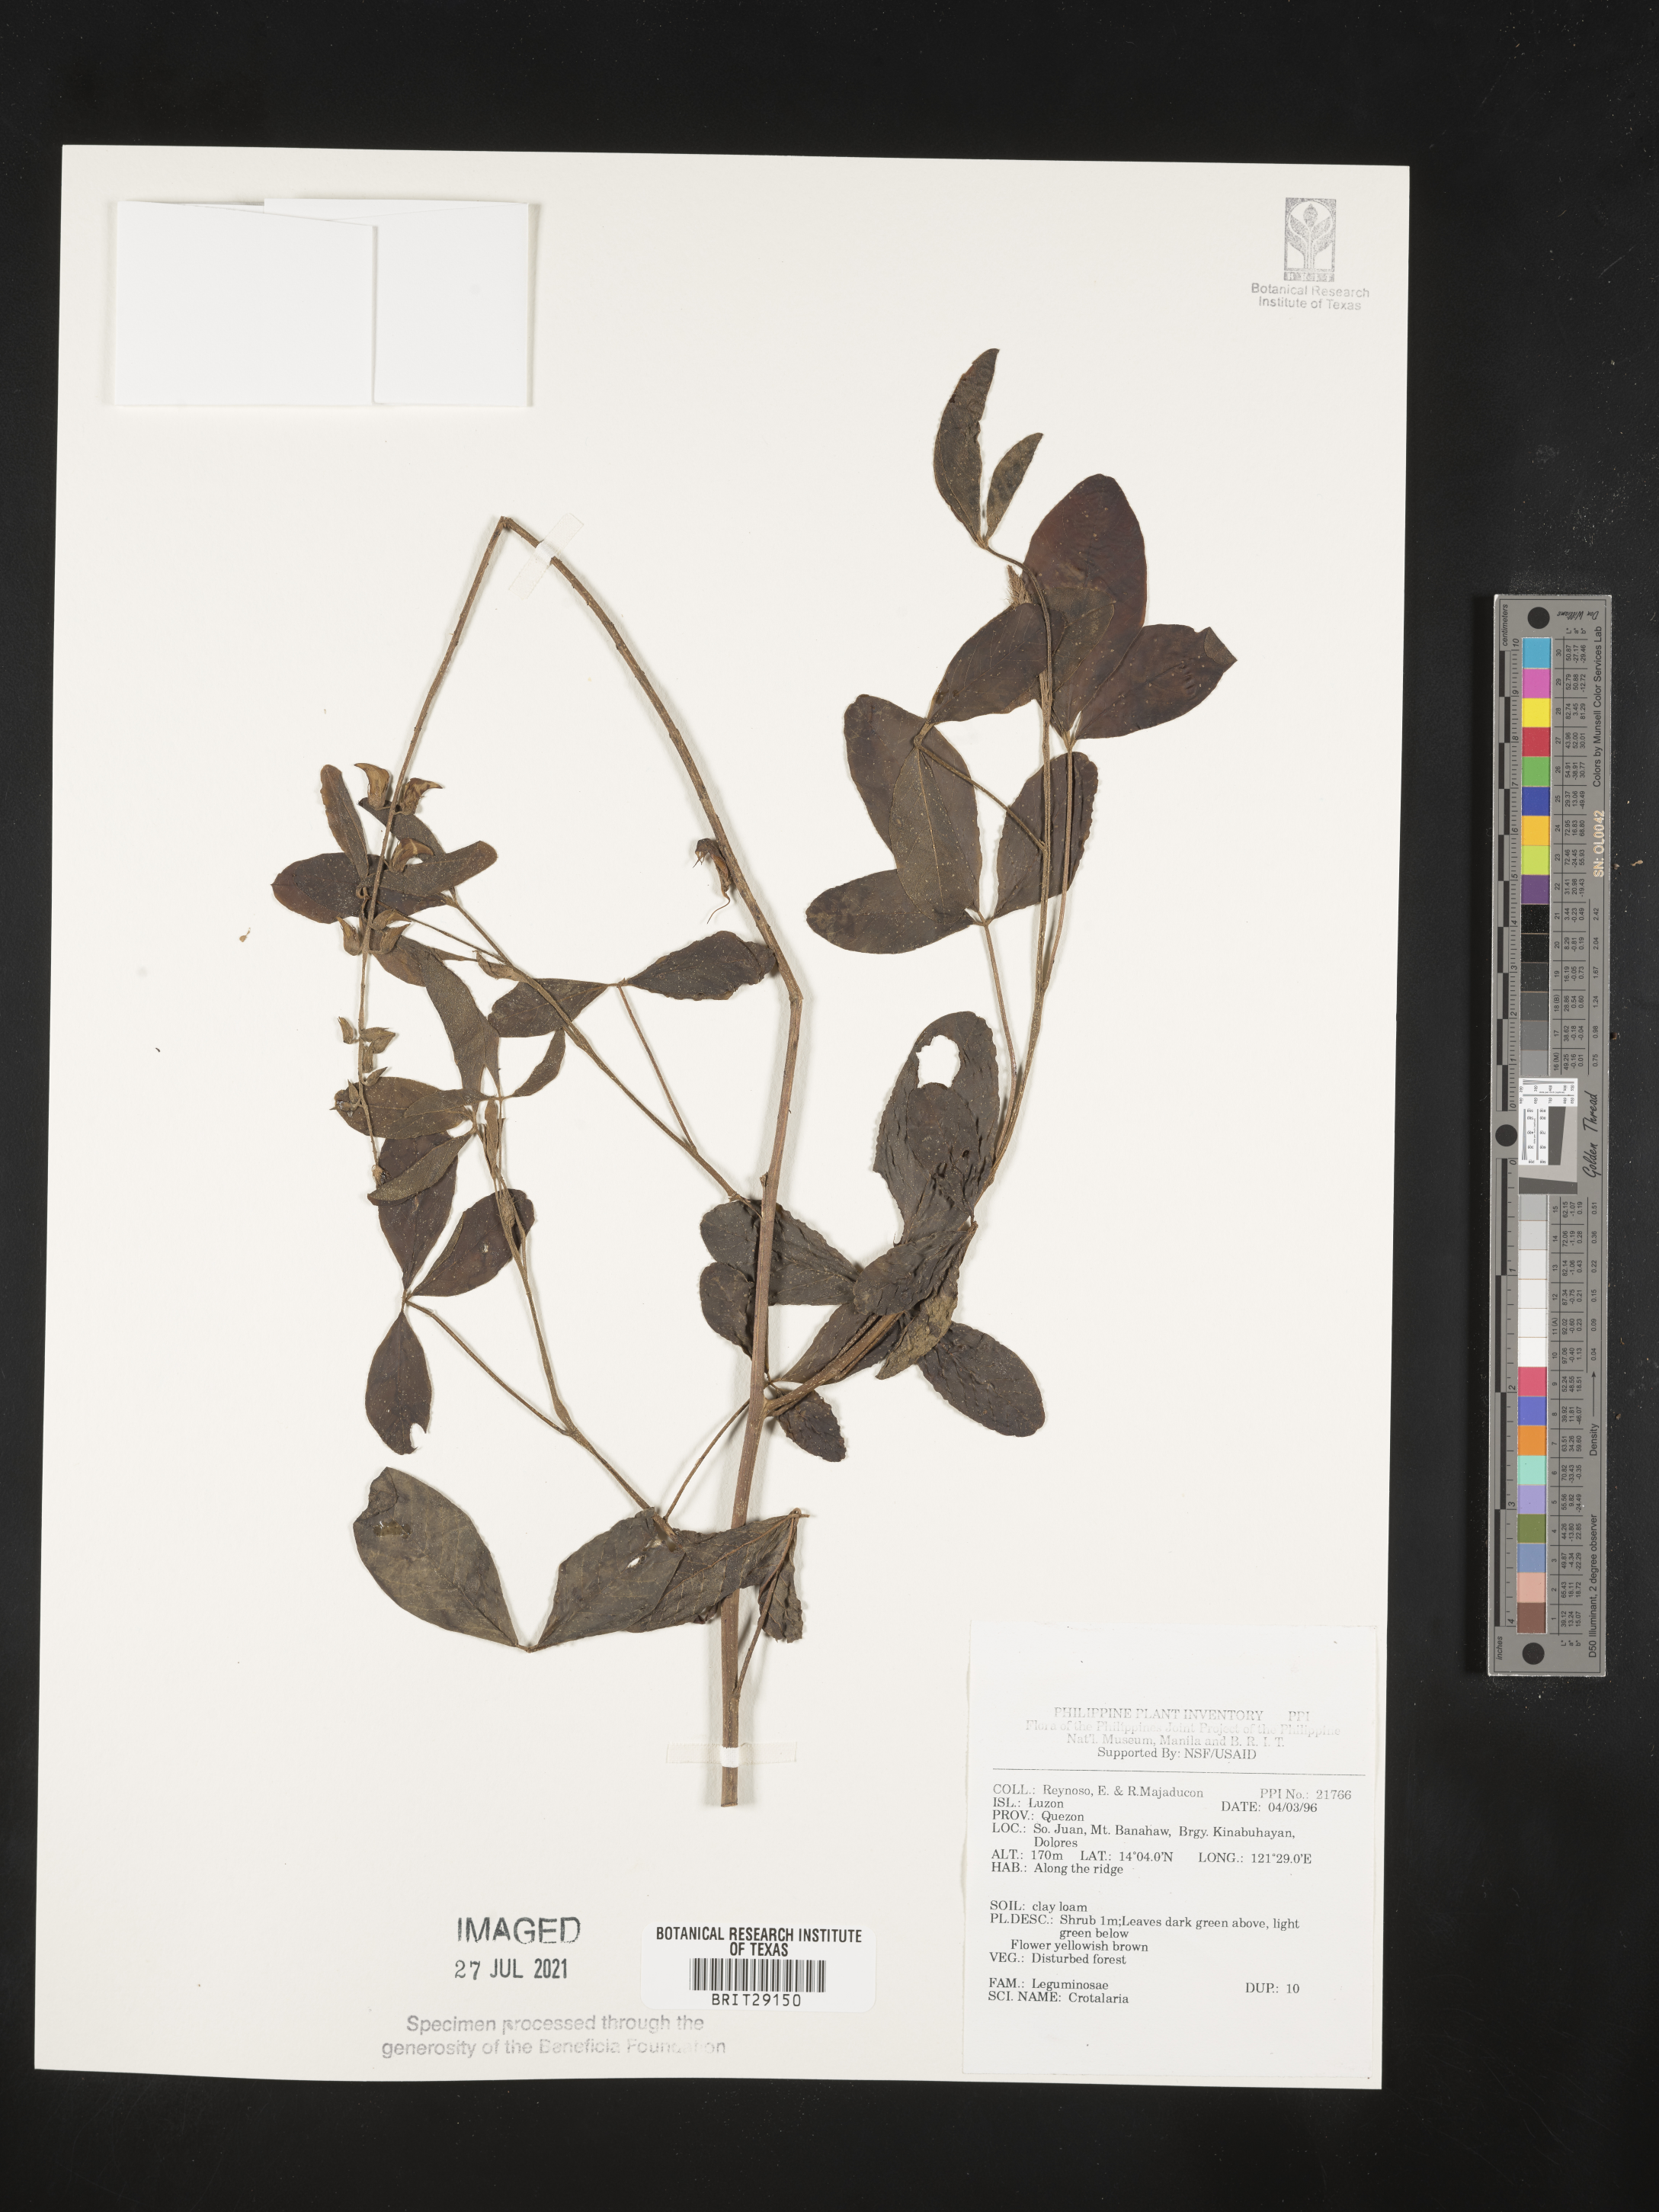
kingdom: Plantae
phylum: Tracheophyta
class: Magnoliopsida
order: Fabales
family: Fabaceae
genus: Crotalaria
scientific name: Crotalaria
